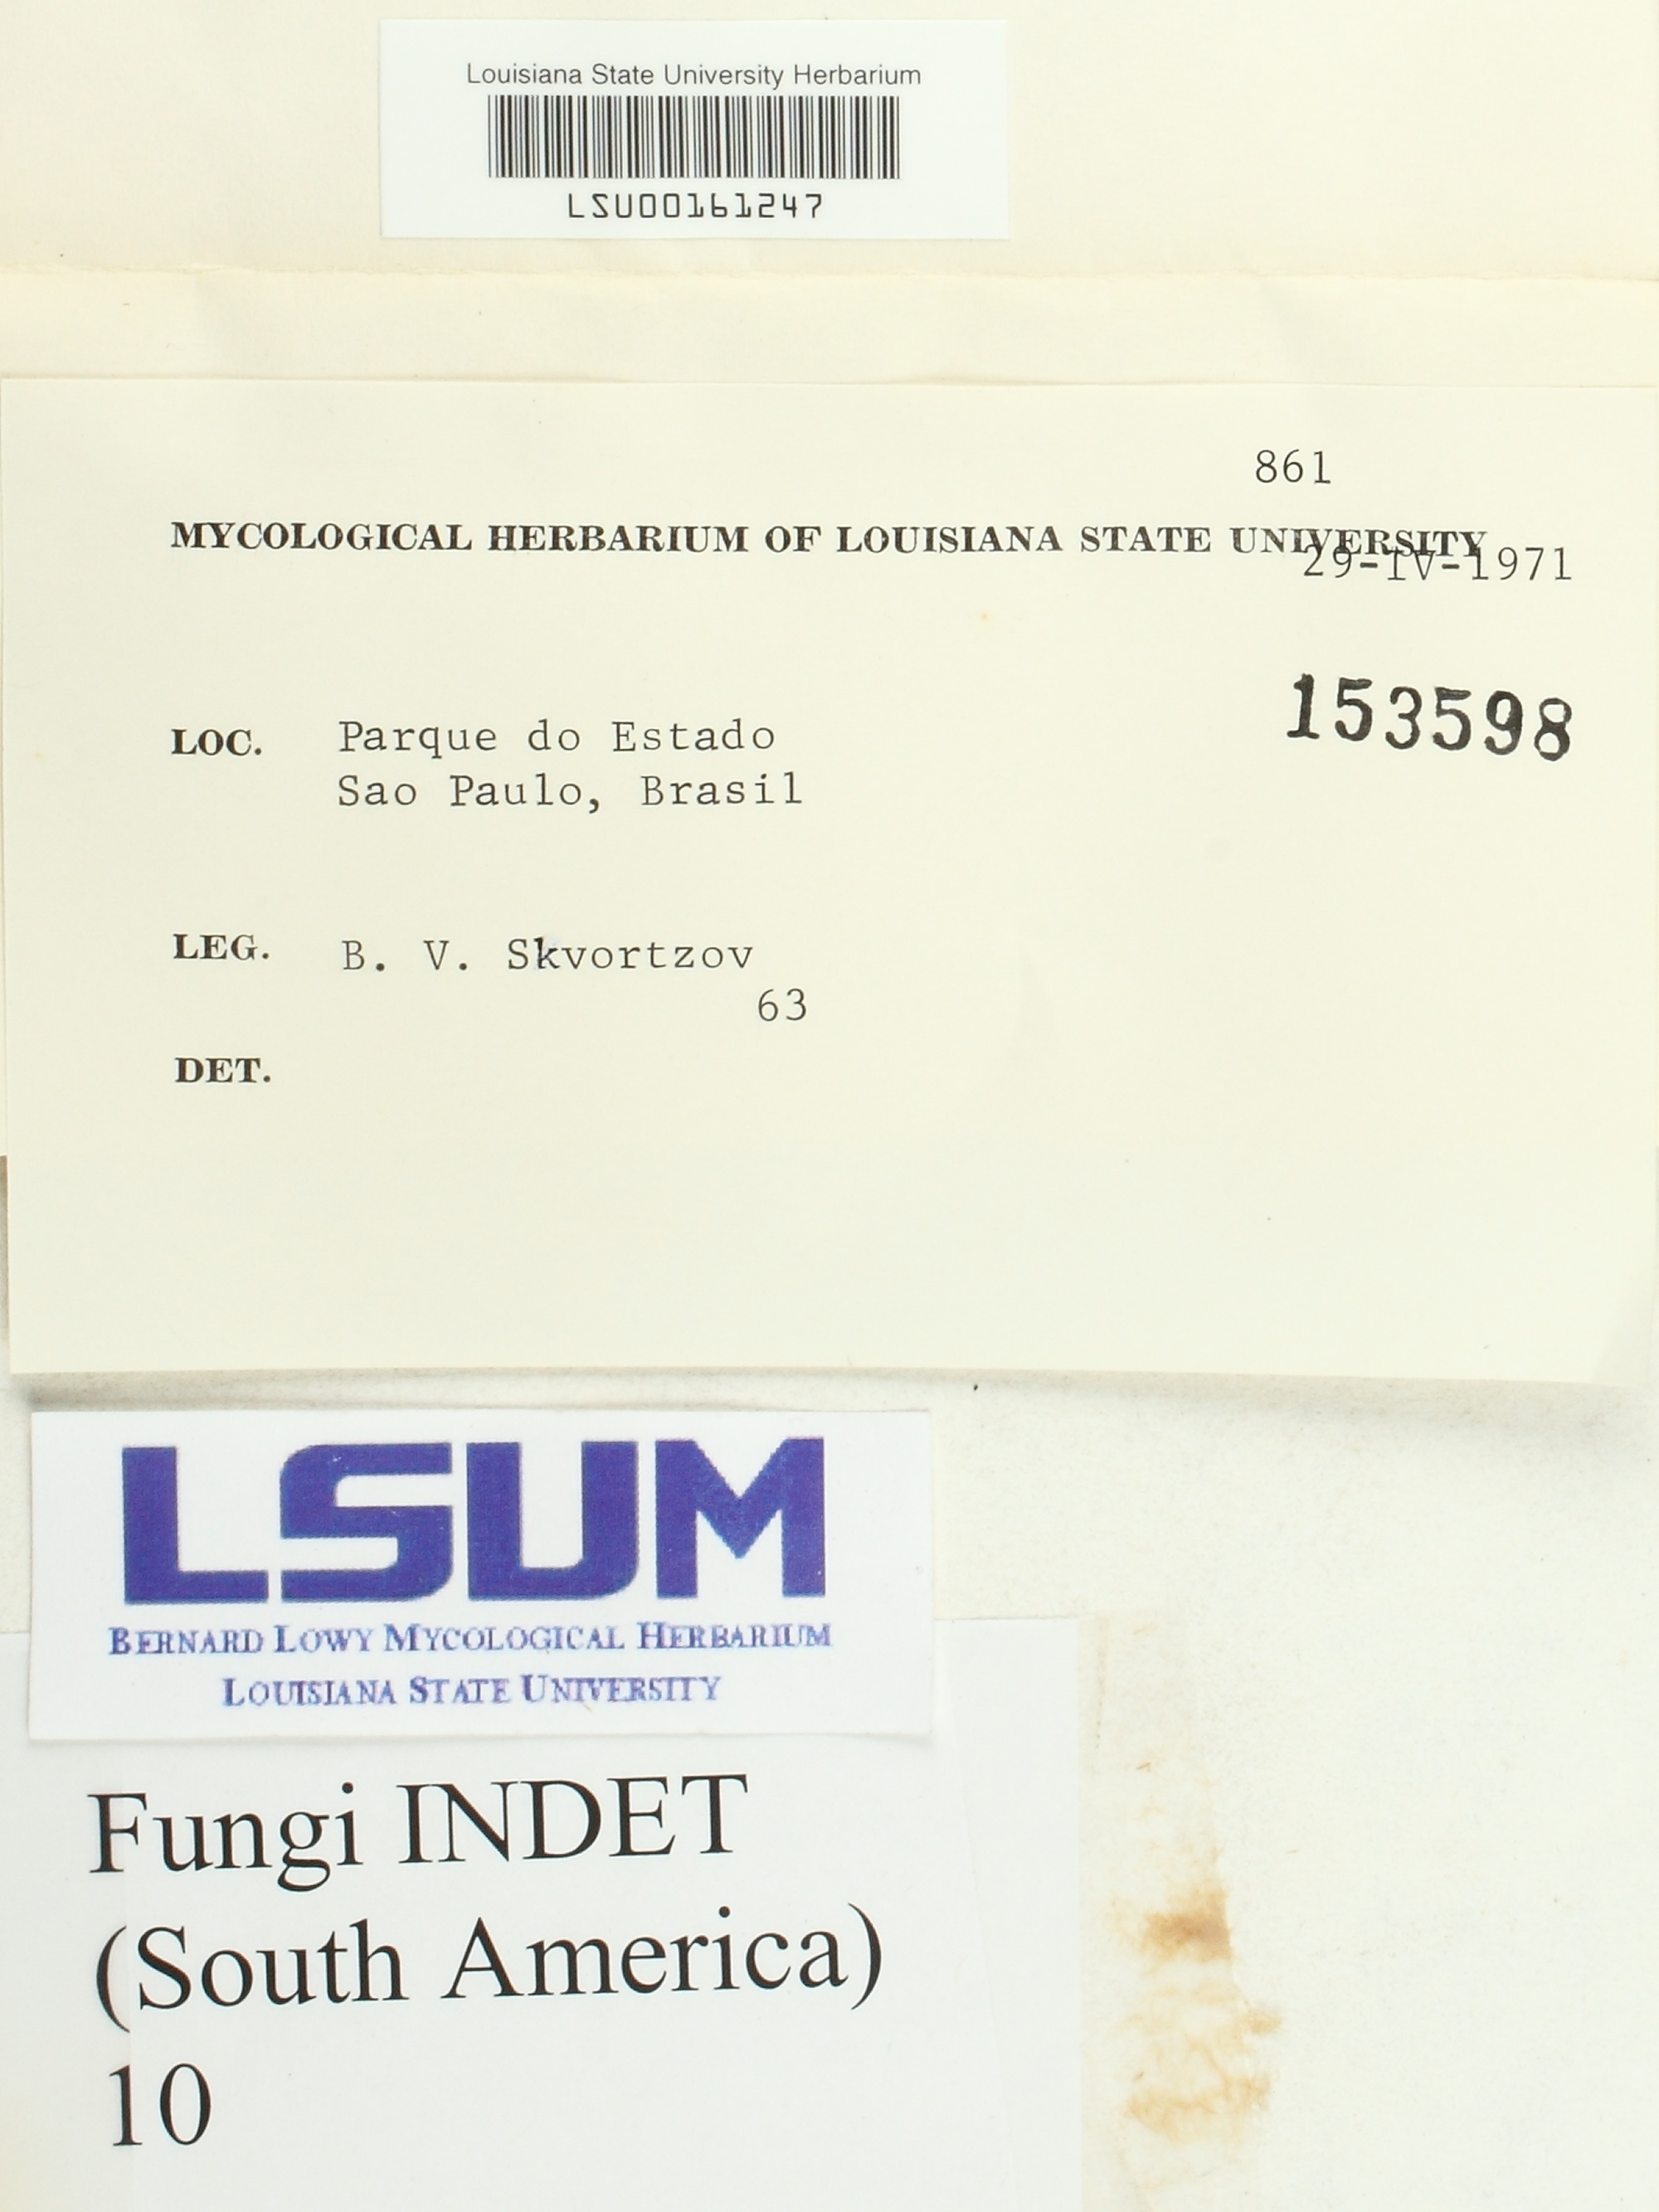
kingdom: Fungi
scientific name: Fungi
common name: Fungi
